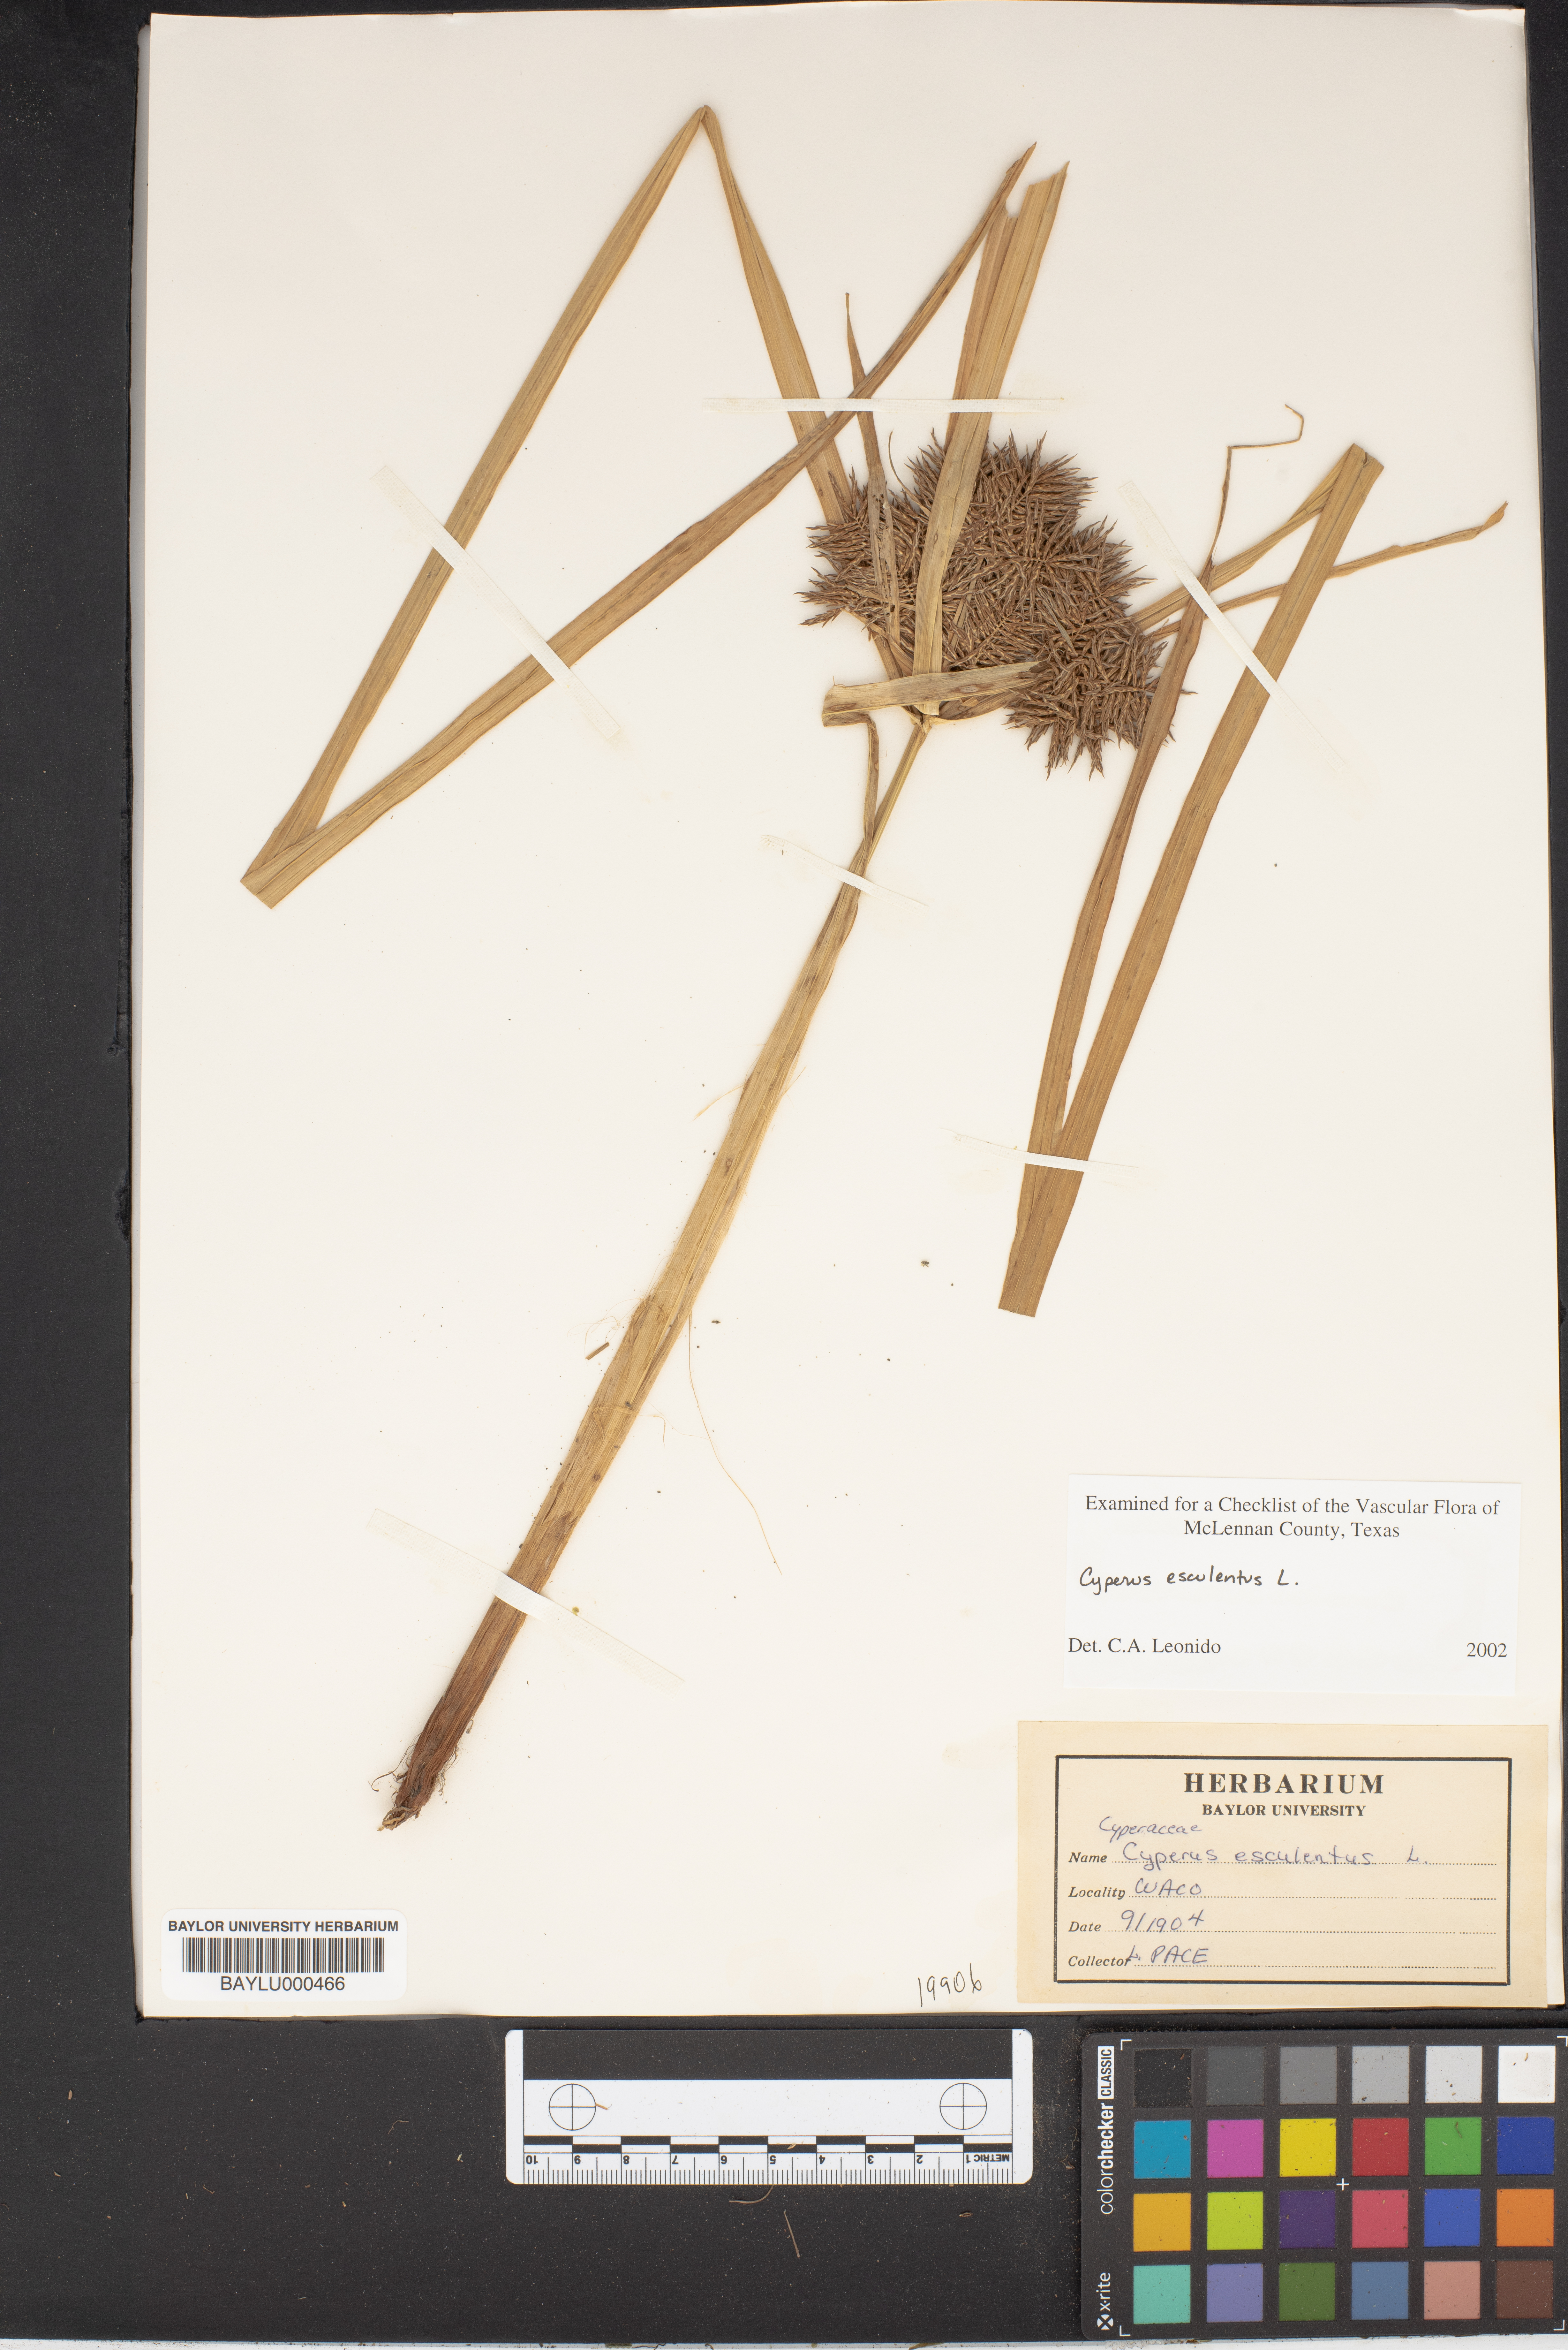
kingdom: Plantae
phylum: Tracheophyta
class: Liliopsida
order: Poales
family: Cyperaceae
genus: Cyperus
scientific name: Cyperus esculentus
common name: Yellow nutsedge
